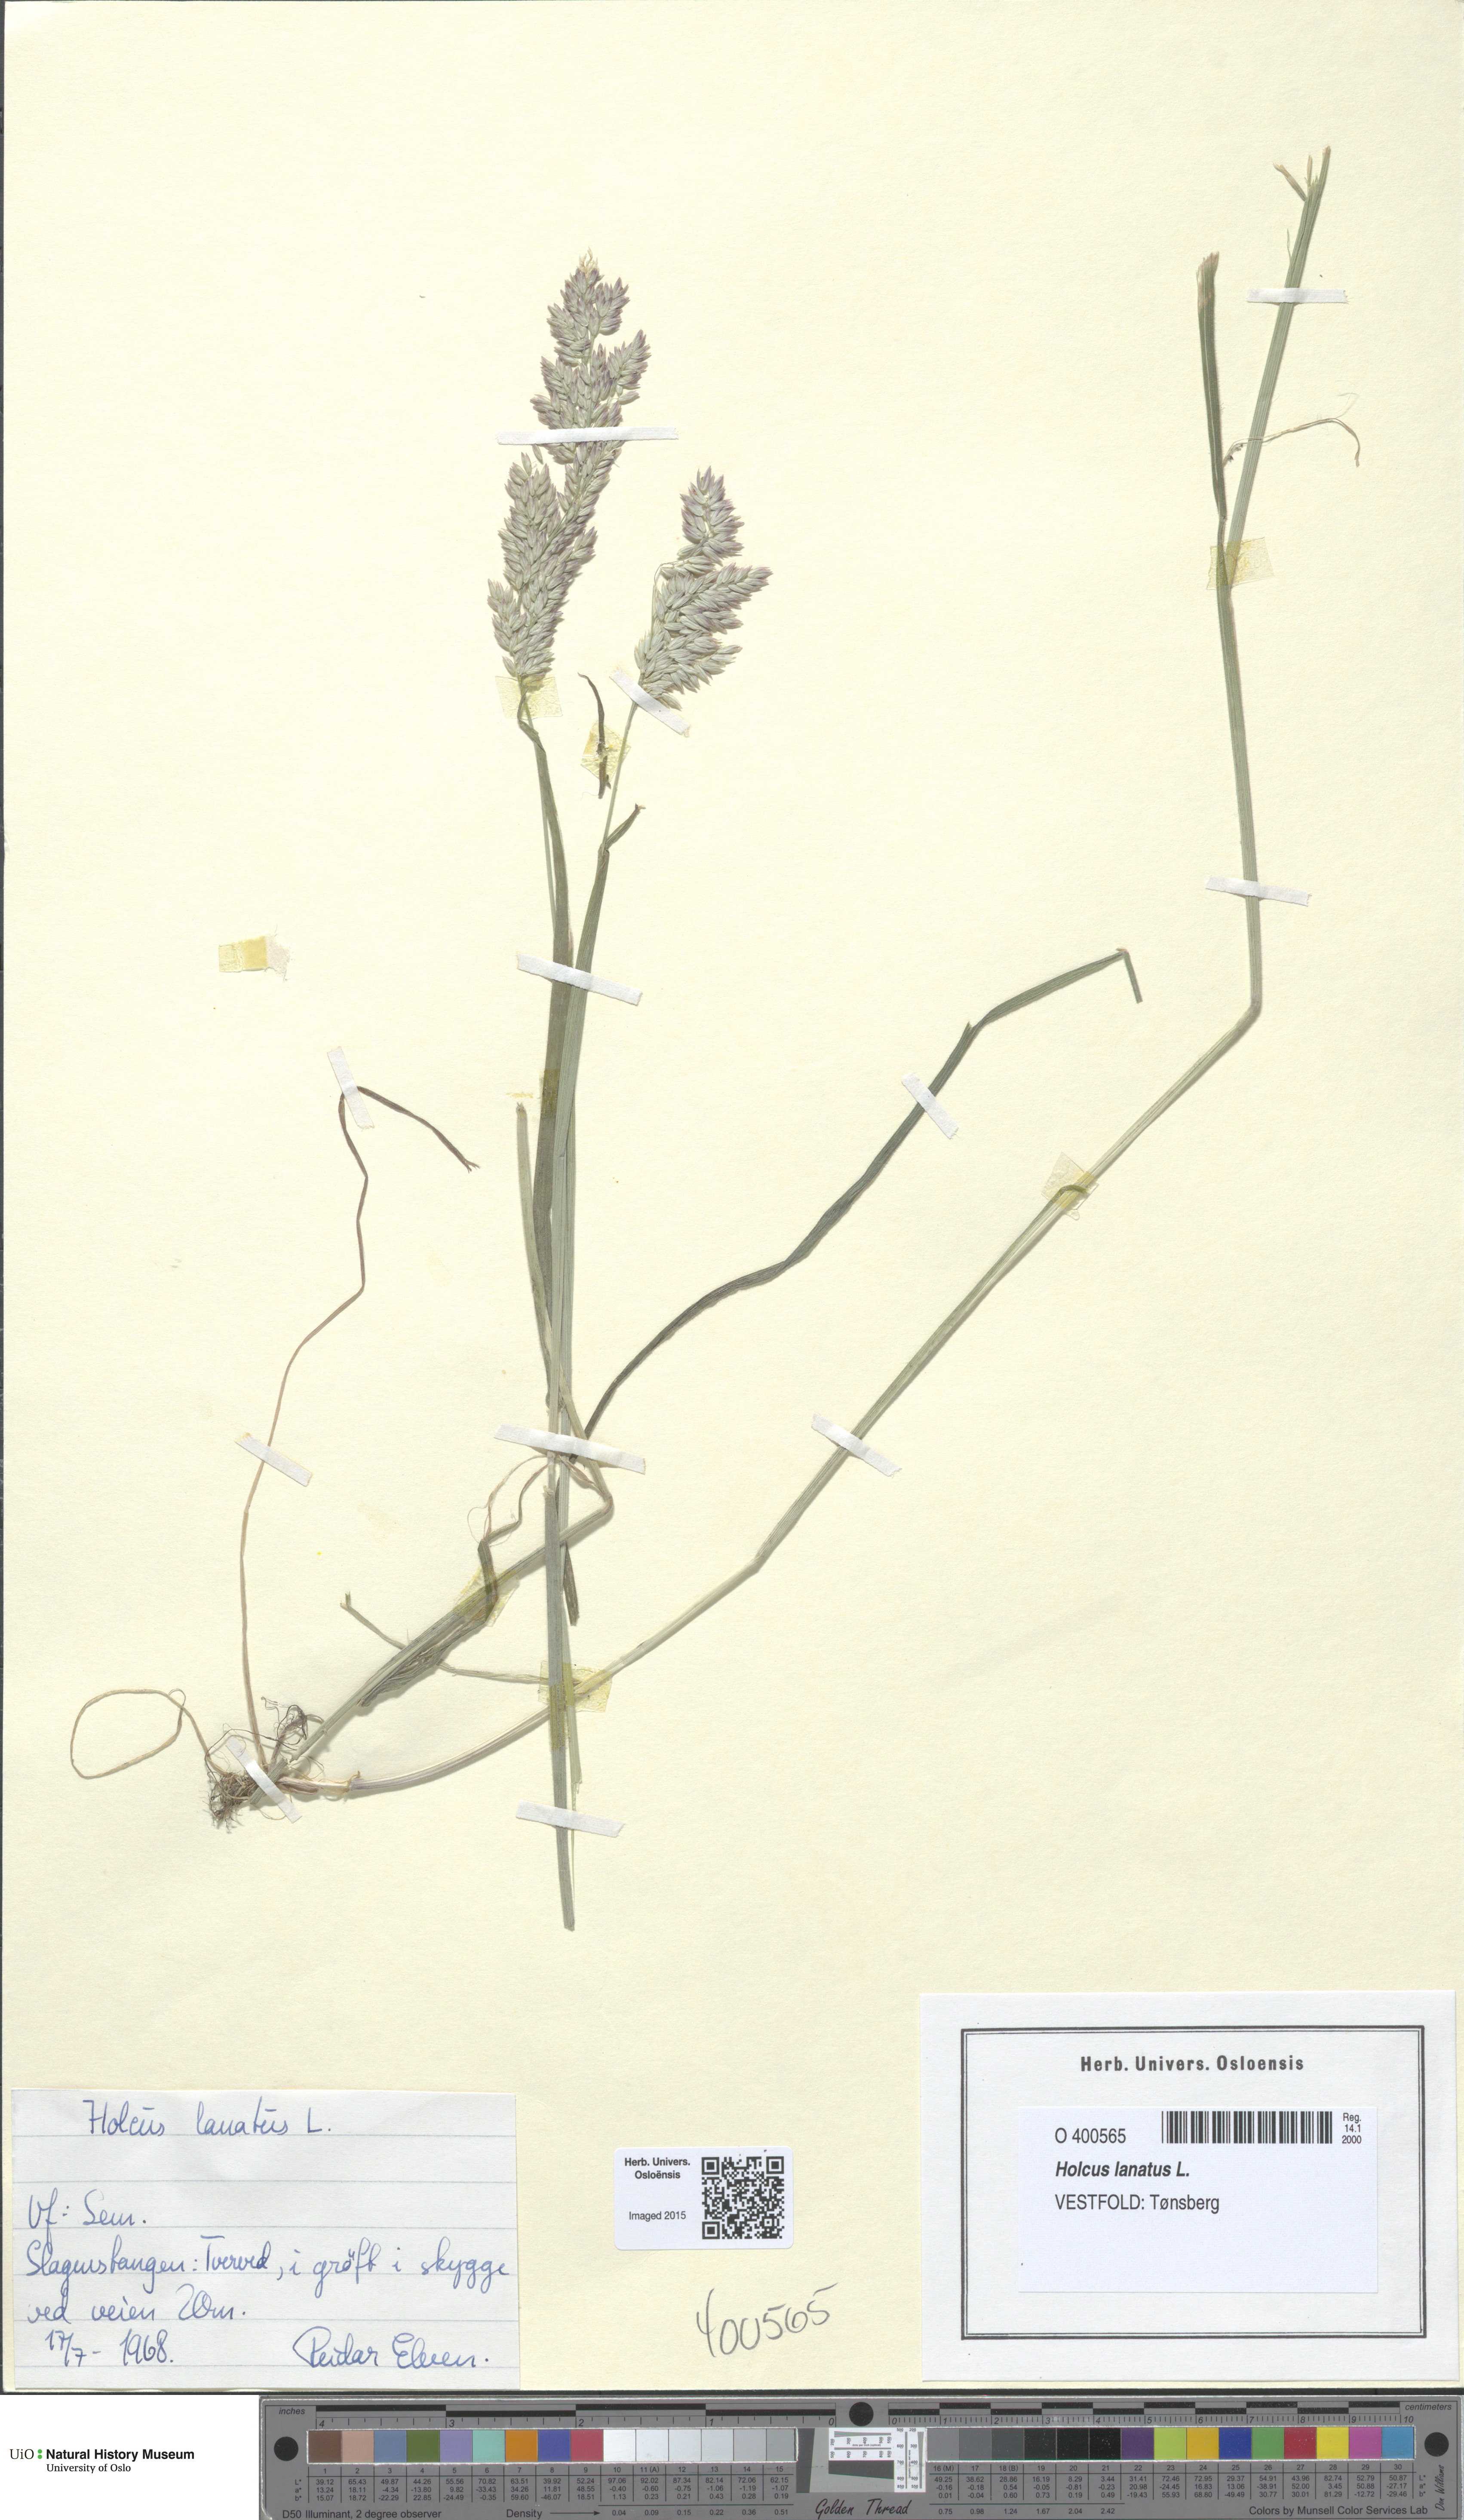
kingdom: Plantae
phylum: Tracheophyta
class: Liliopsida
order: Poales
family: Poaceae
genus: Holcus
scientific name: Holcus lanatus
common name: Yorkshire-fog
